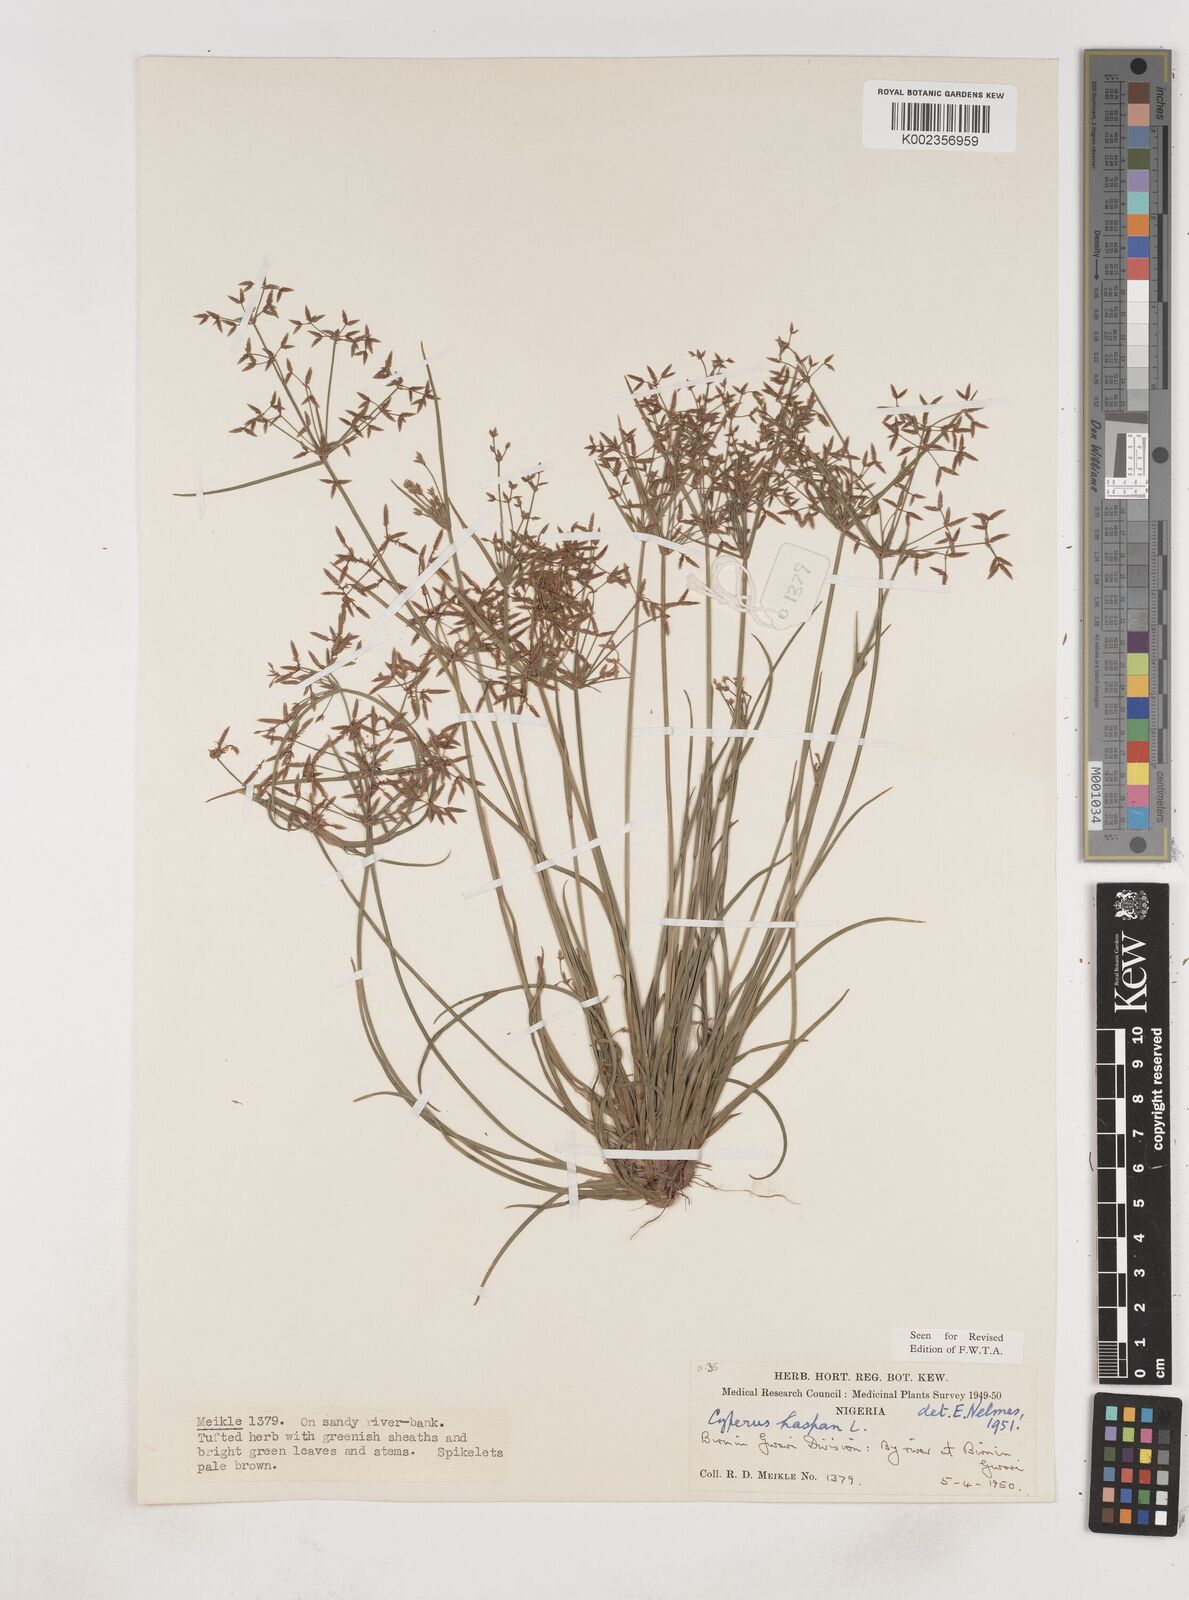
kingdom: Plantae
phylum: Tracheophyta
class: Liliopsida
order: Poales
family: Cyperaceae
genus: Cyperus
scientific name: Cyperus haspan
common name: Haspan flatsedge
